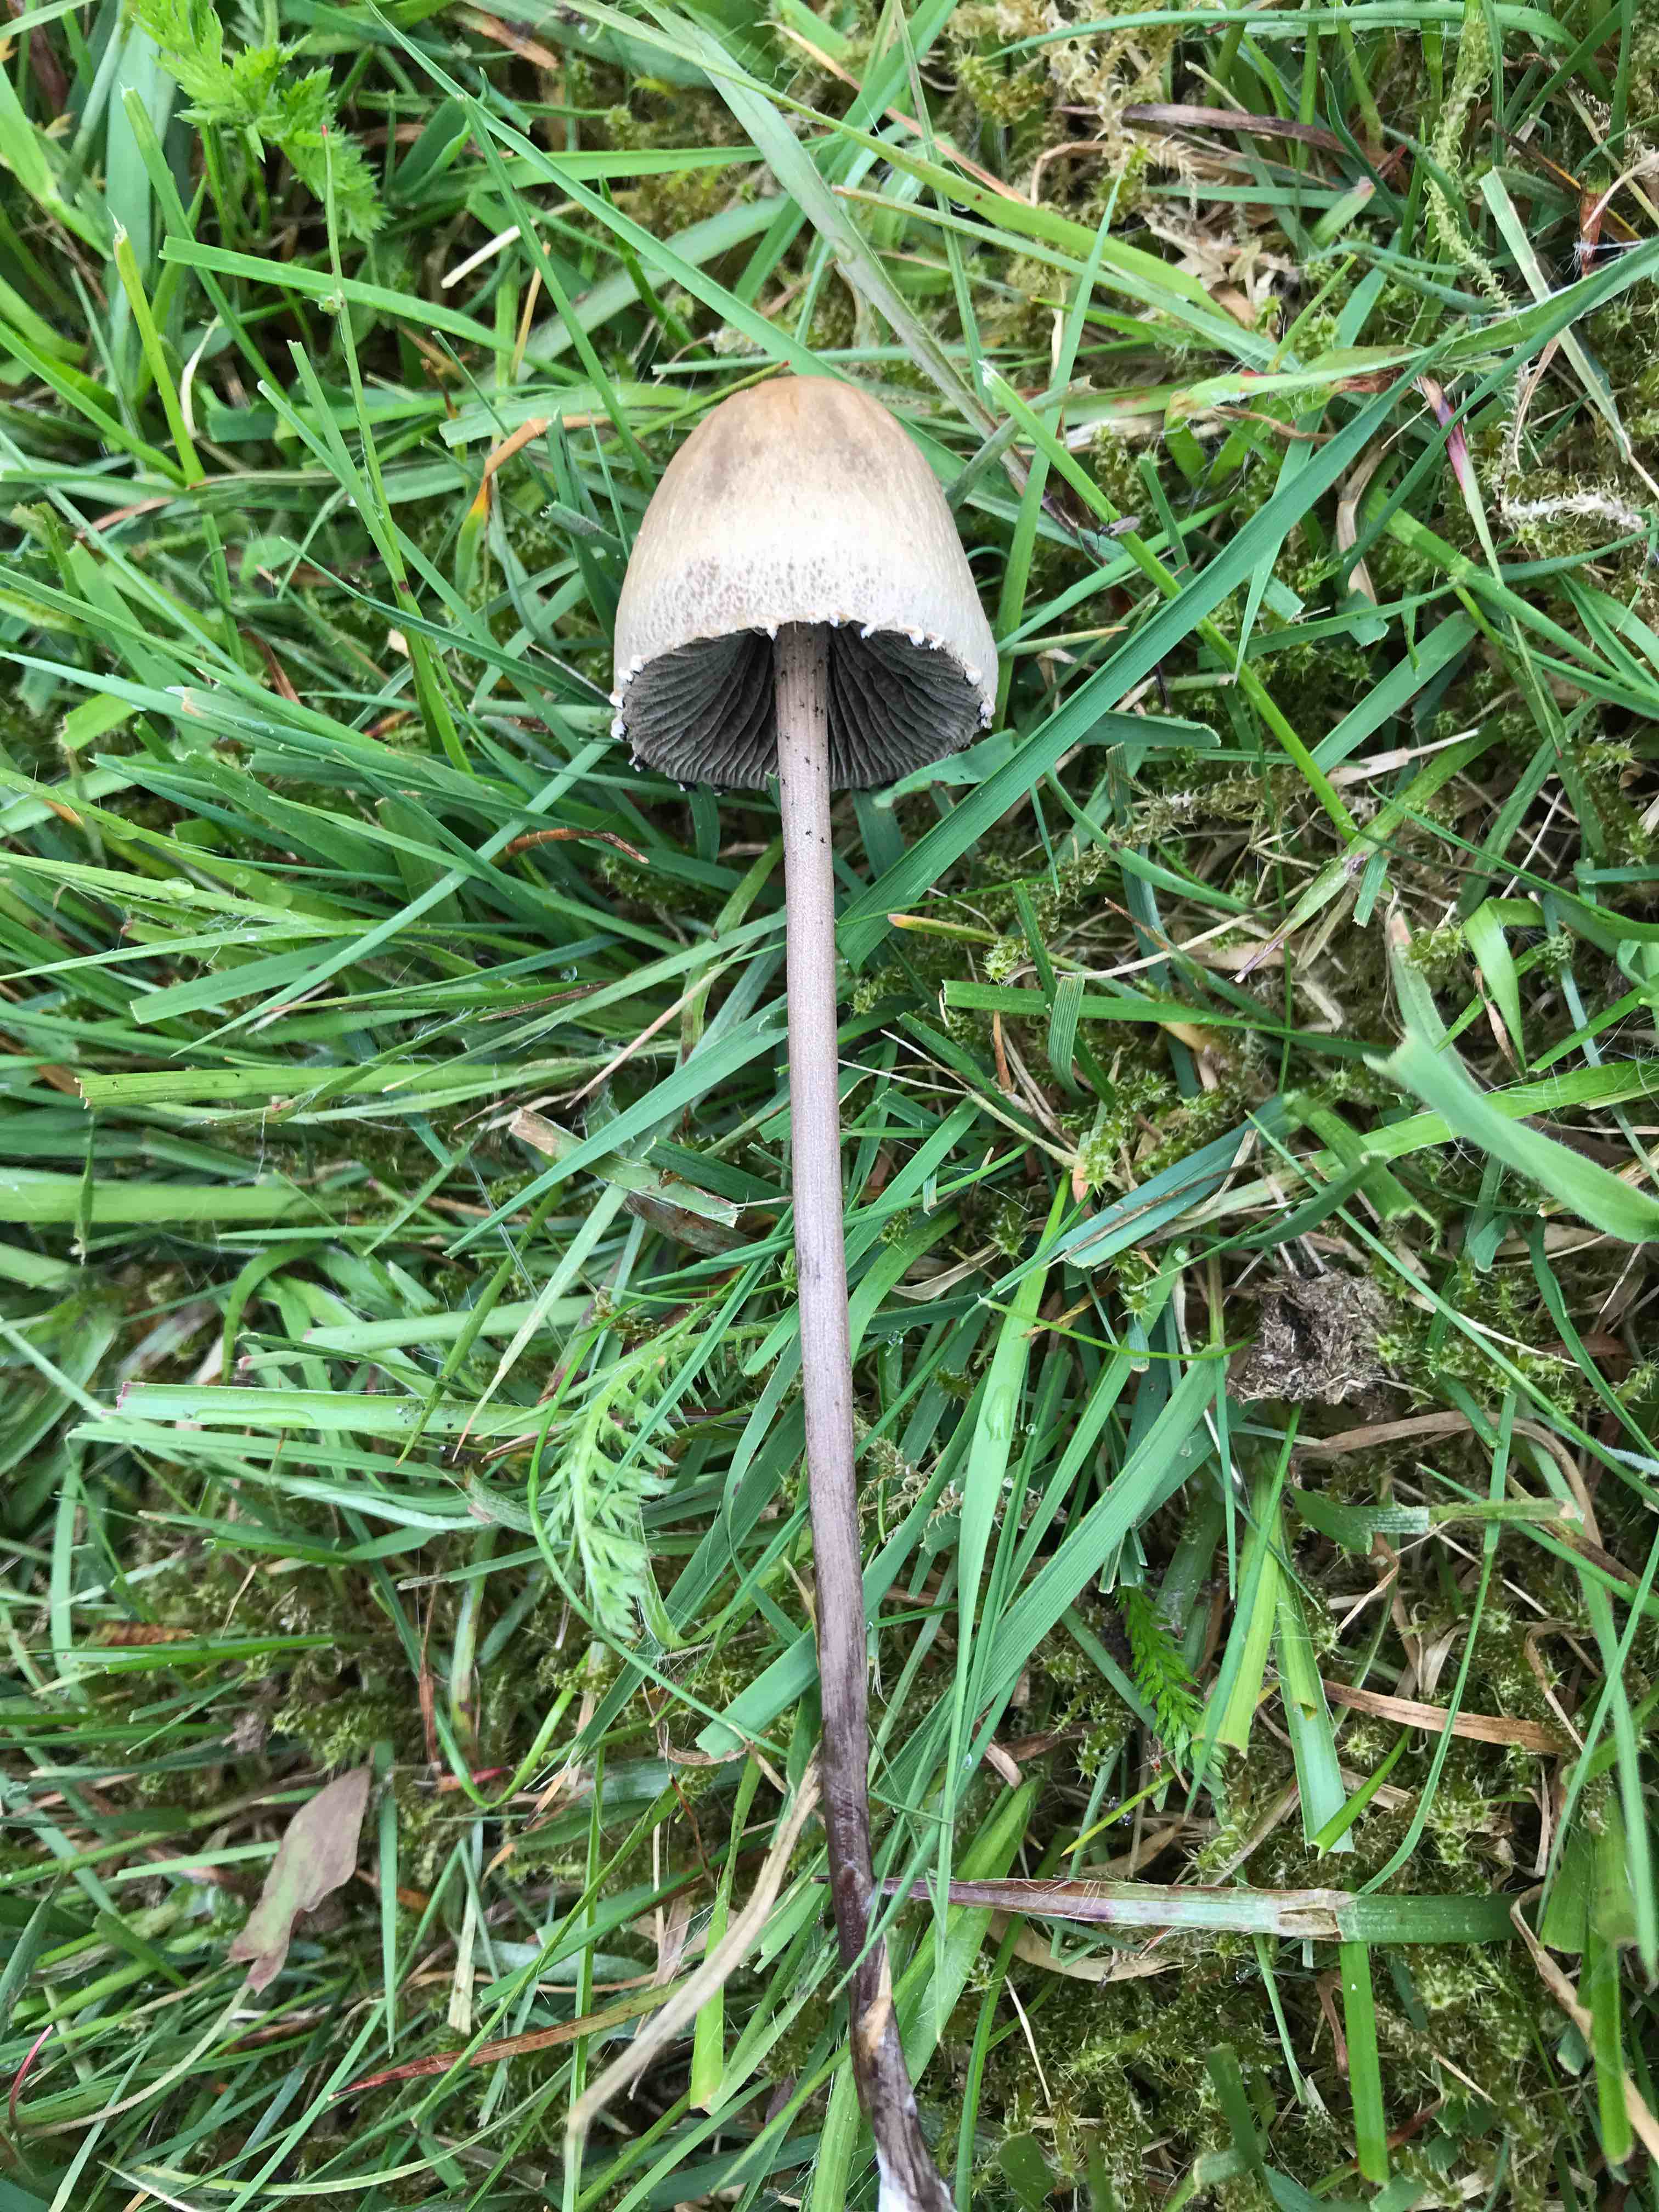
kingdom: Fungi
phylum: Basidiomycota
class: Agaricomycetes
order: Agaricales
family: Bolbitiaceae
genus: Panaeolus
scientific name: Panaeolus papilionaceus
